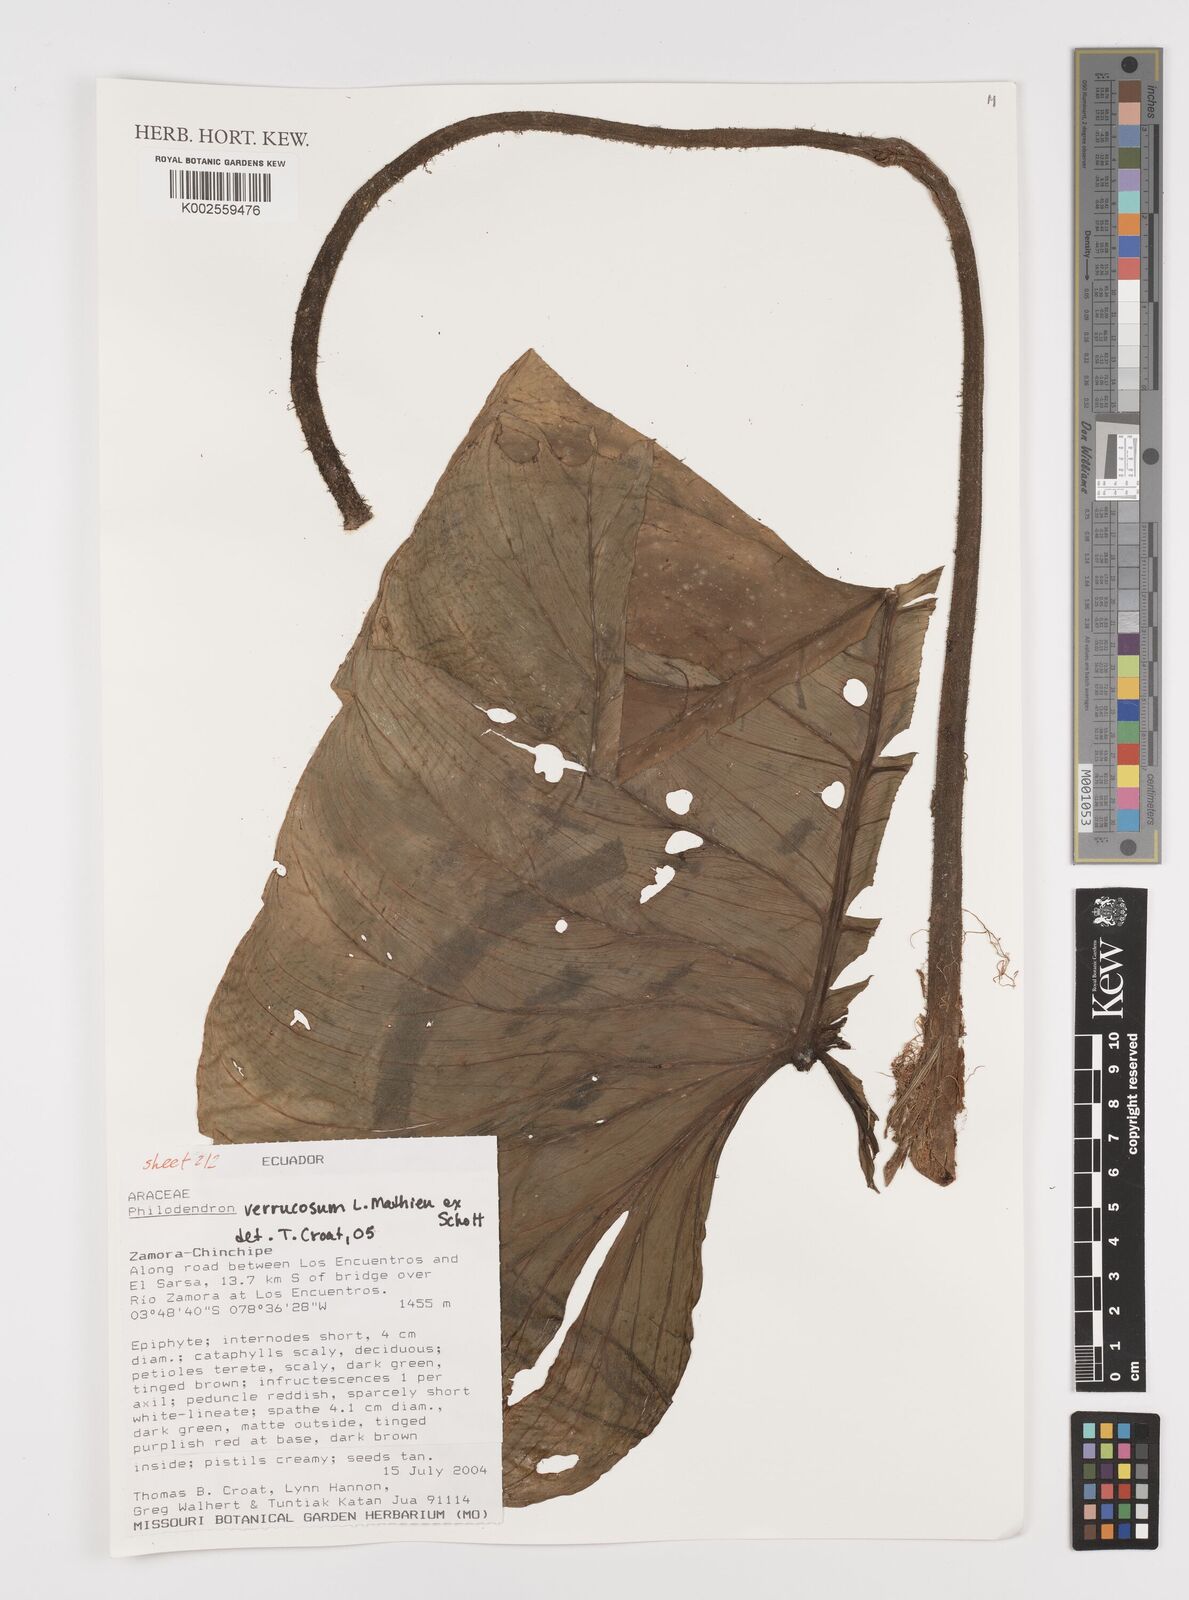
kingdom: Plantae
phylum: Tracheophyta
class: Liliopsida
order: Alismatales
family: Araceae
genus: Philodendron
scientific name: Philodendron verrucosum
